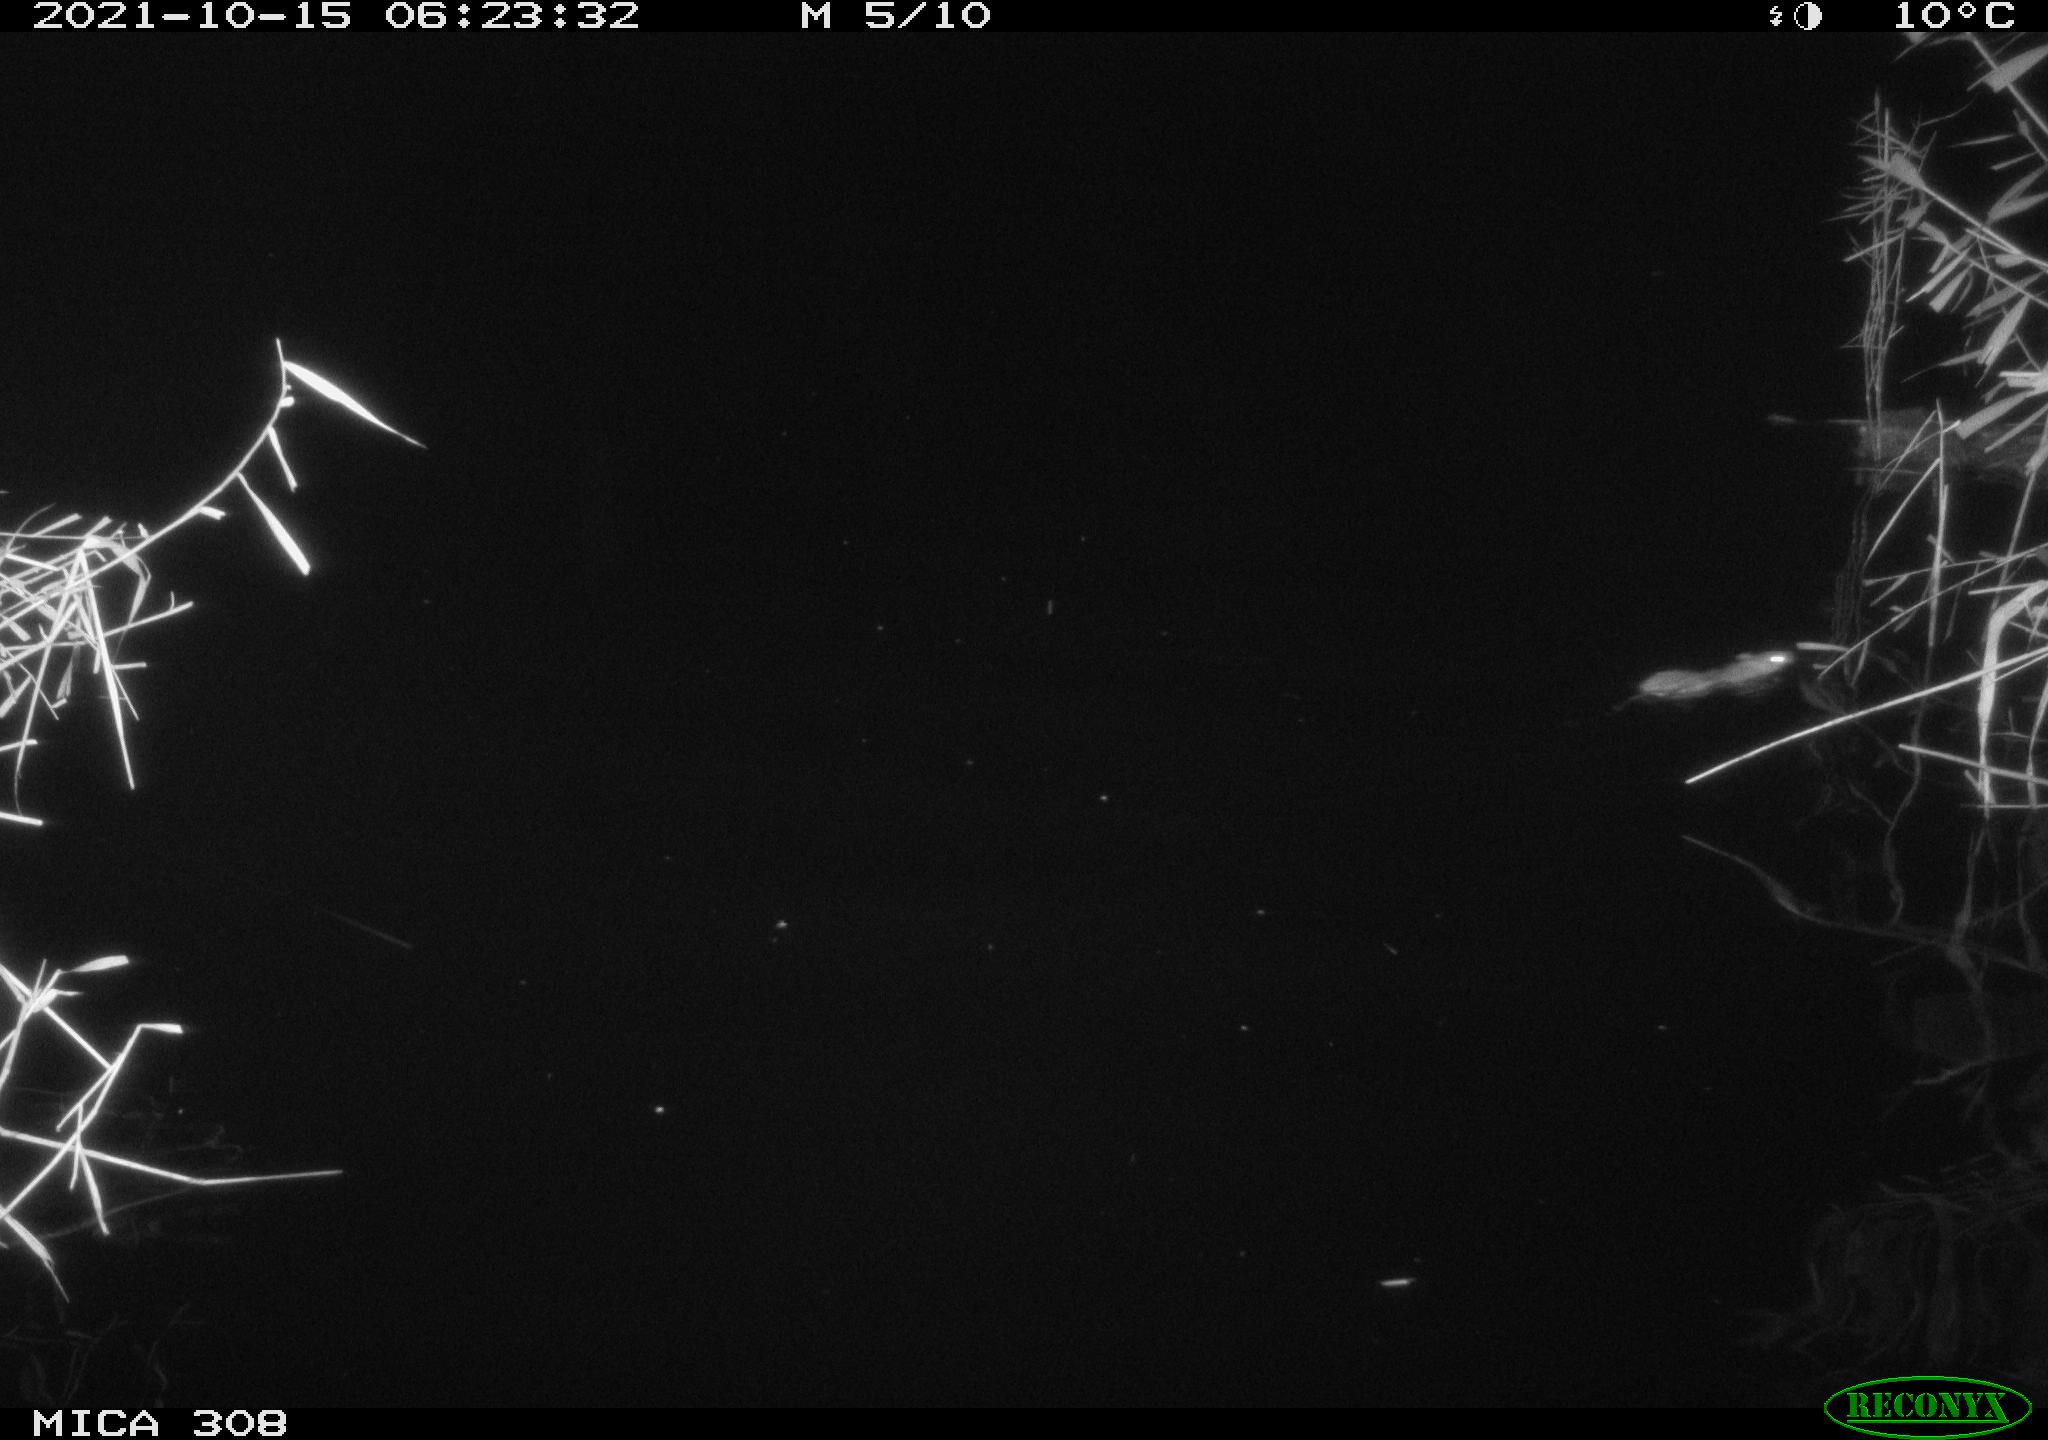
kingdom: Animalia
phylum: Chordata
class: Mammalia
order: Rodentia
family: Muridae
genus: Rattus
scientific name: Rattus norvegicus
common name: Brown rat
